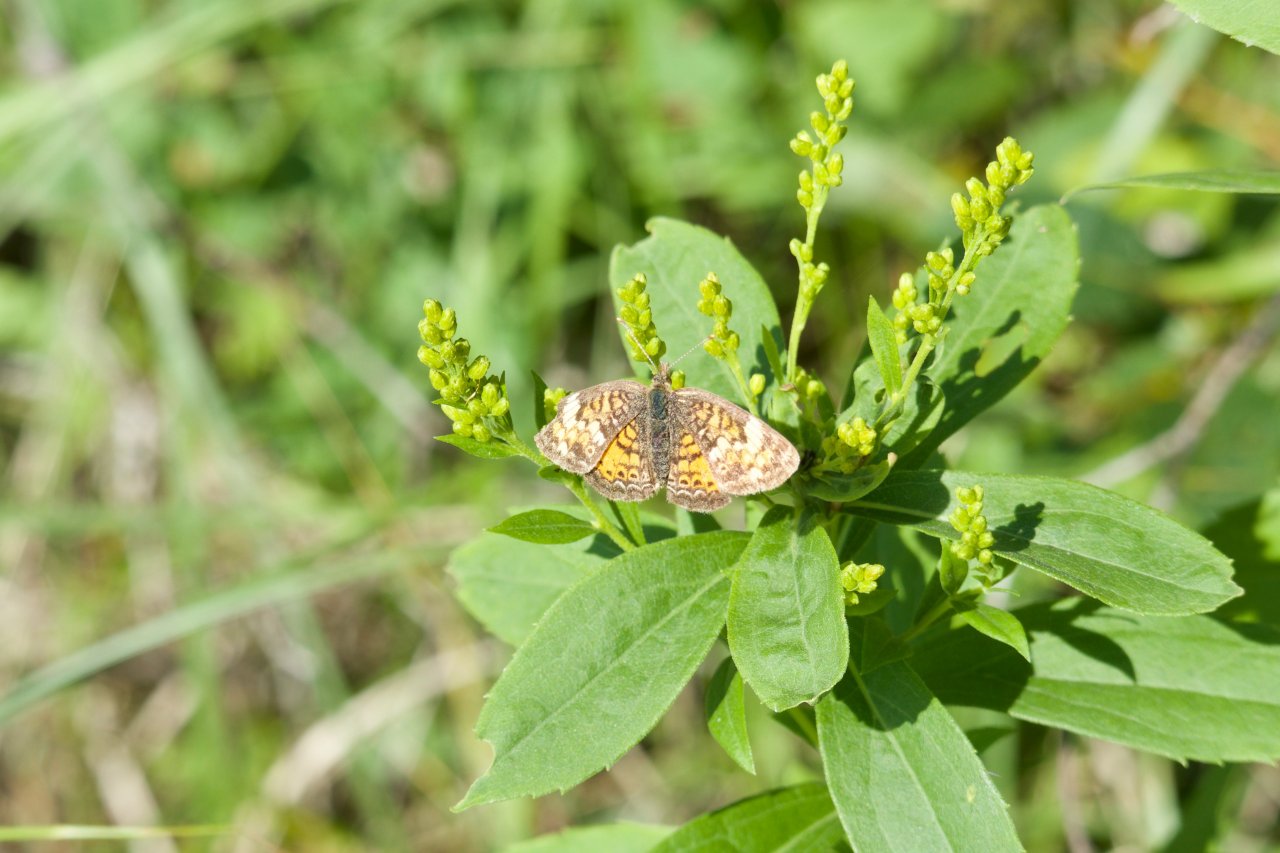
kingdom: Animalia
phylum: Arthropoda
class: Insecta
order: Lepidoptera
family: Nymphalidae
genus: Phyciodes
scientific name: Phyciodes tharos
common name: Northern Crescent
